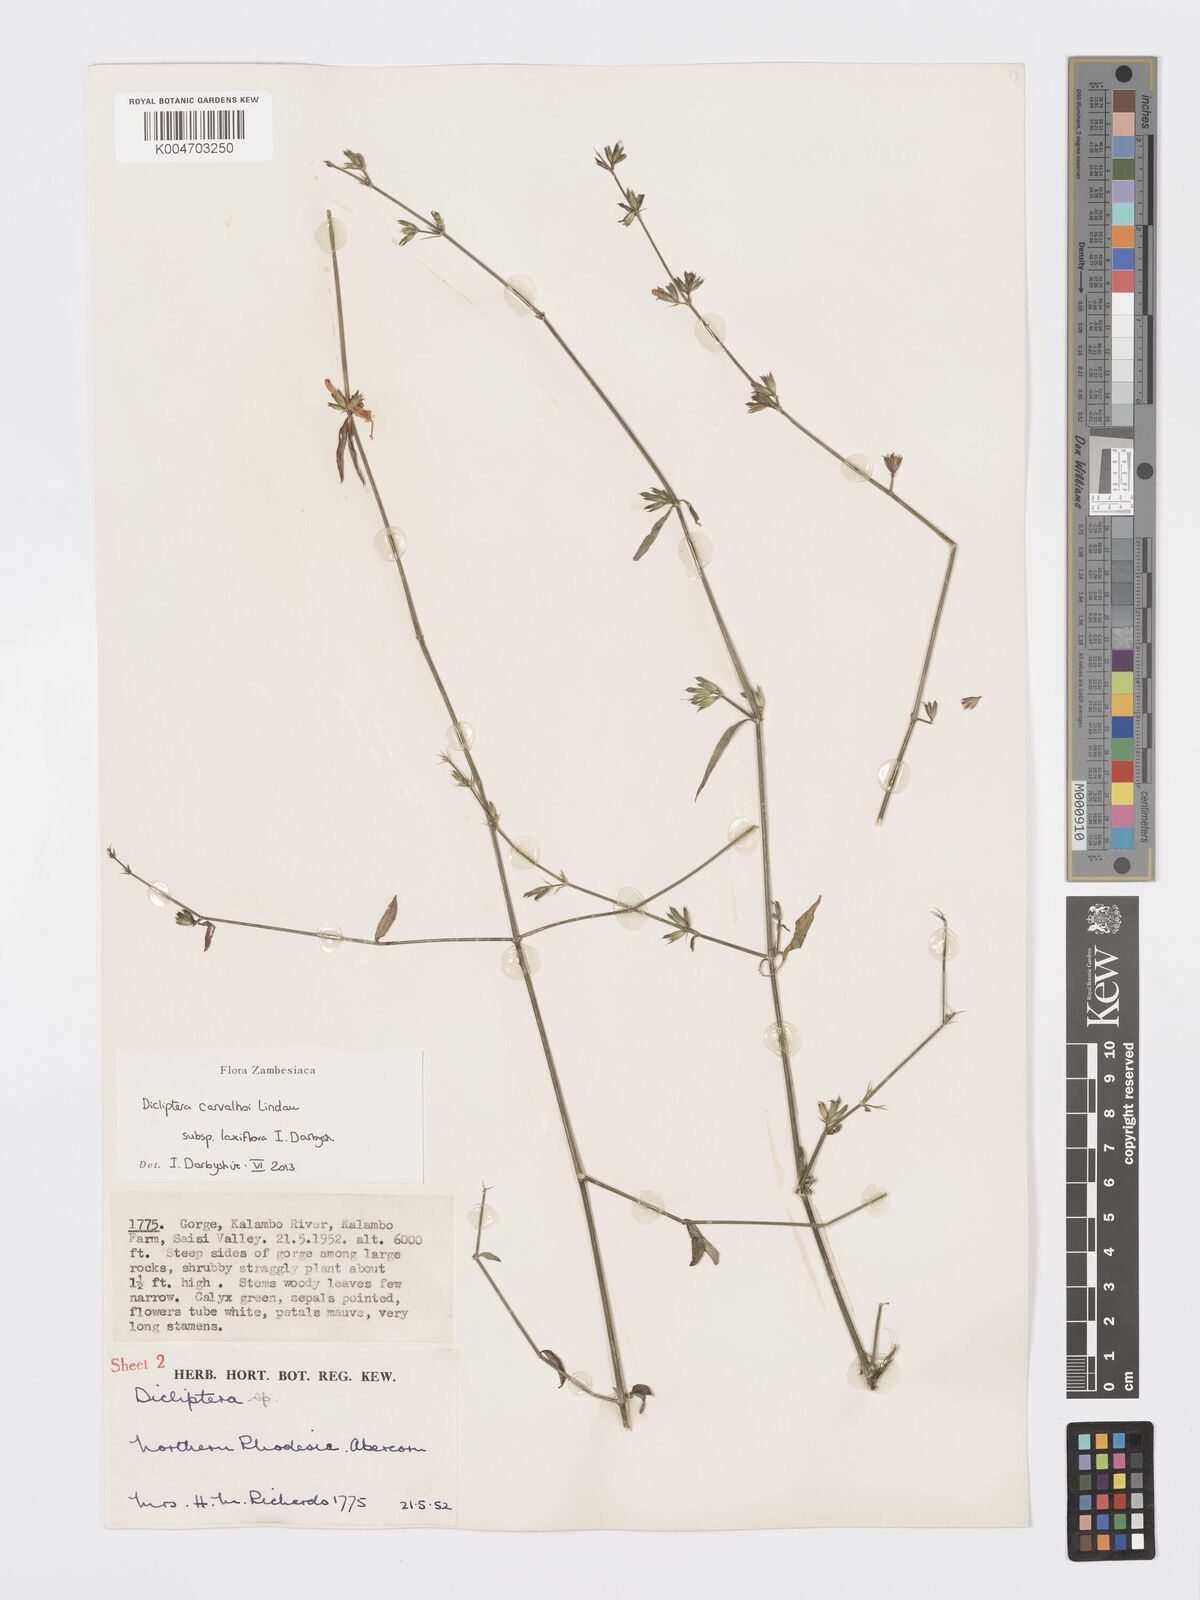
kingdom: Plantae
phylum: Tracheophyta
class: Magnoliopsida
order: Lamiales
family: Acanthaceae
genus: Dicliptera
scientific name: Dicliptera carvalhoi
